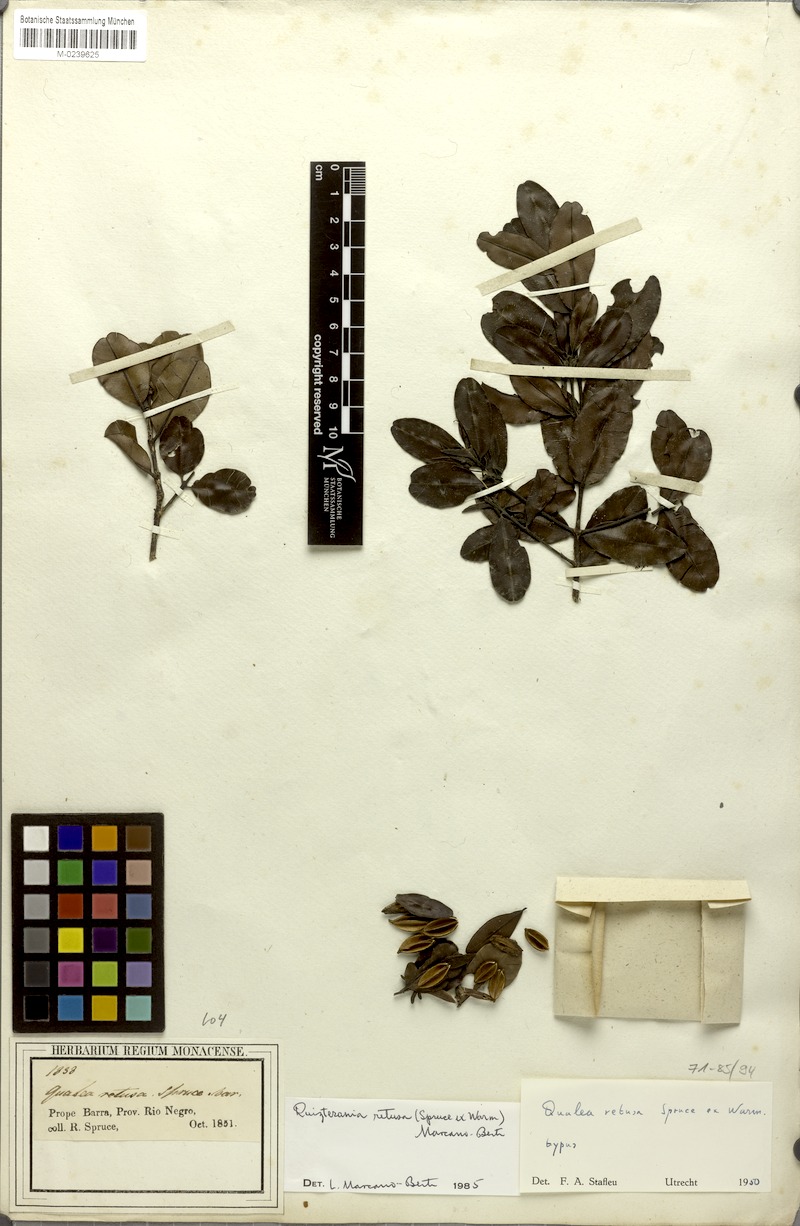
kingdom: Plantae
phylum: Tracheophyta
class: Magnoliopsida
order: Myrtales
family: Vochysiaceae
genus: Ruizterania
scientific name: Ruizterania retusa
